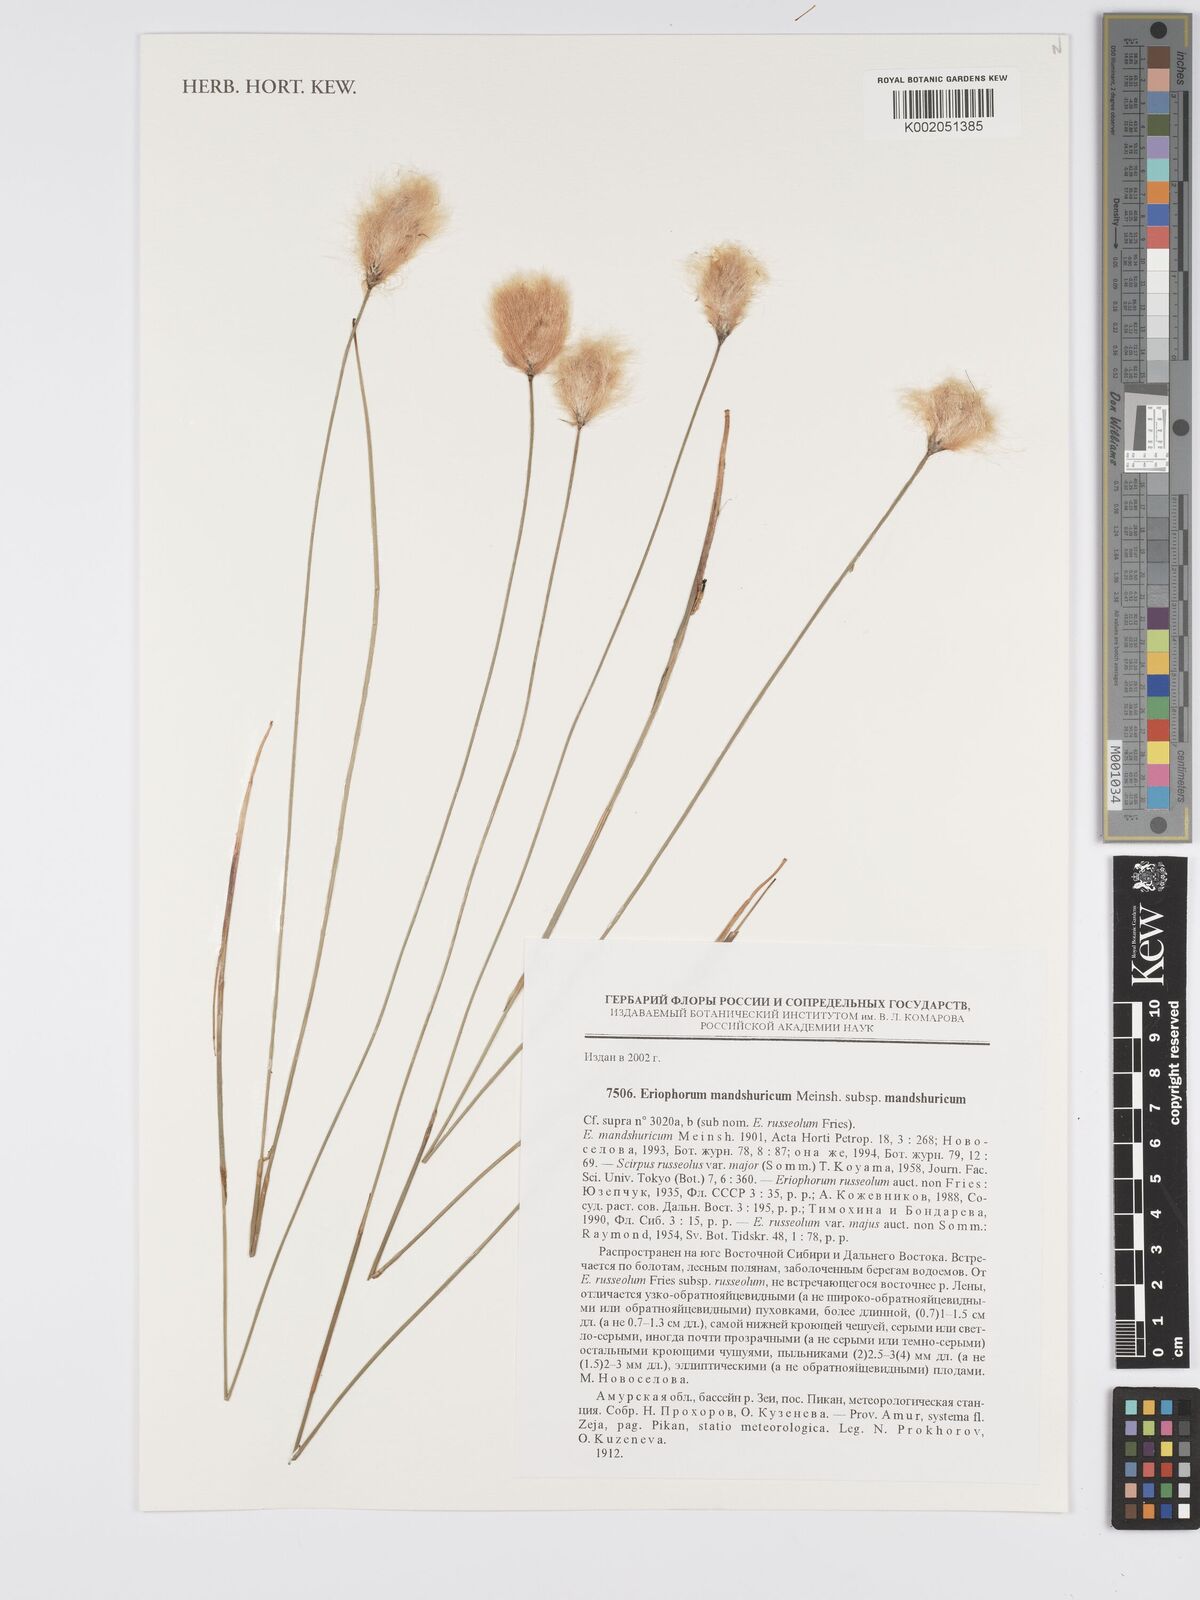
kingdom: Plantae
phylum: Tracheophyta
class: Liliopsida
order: Poales
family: Cyperaceae
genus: Eriophorum
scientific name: Eriophorum chamissonis
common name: Chamisso's cottongrass
